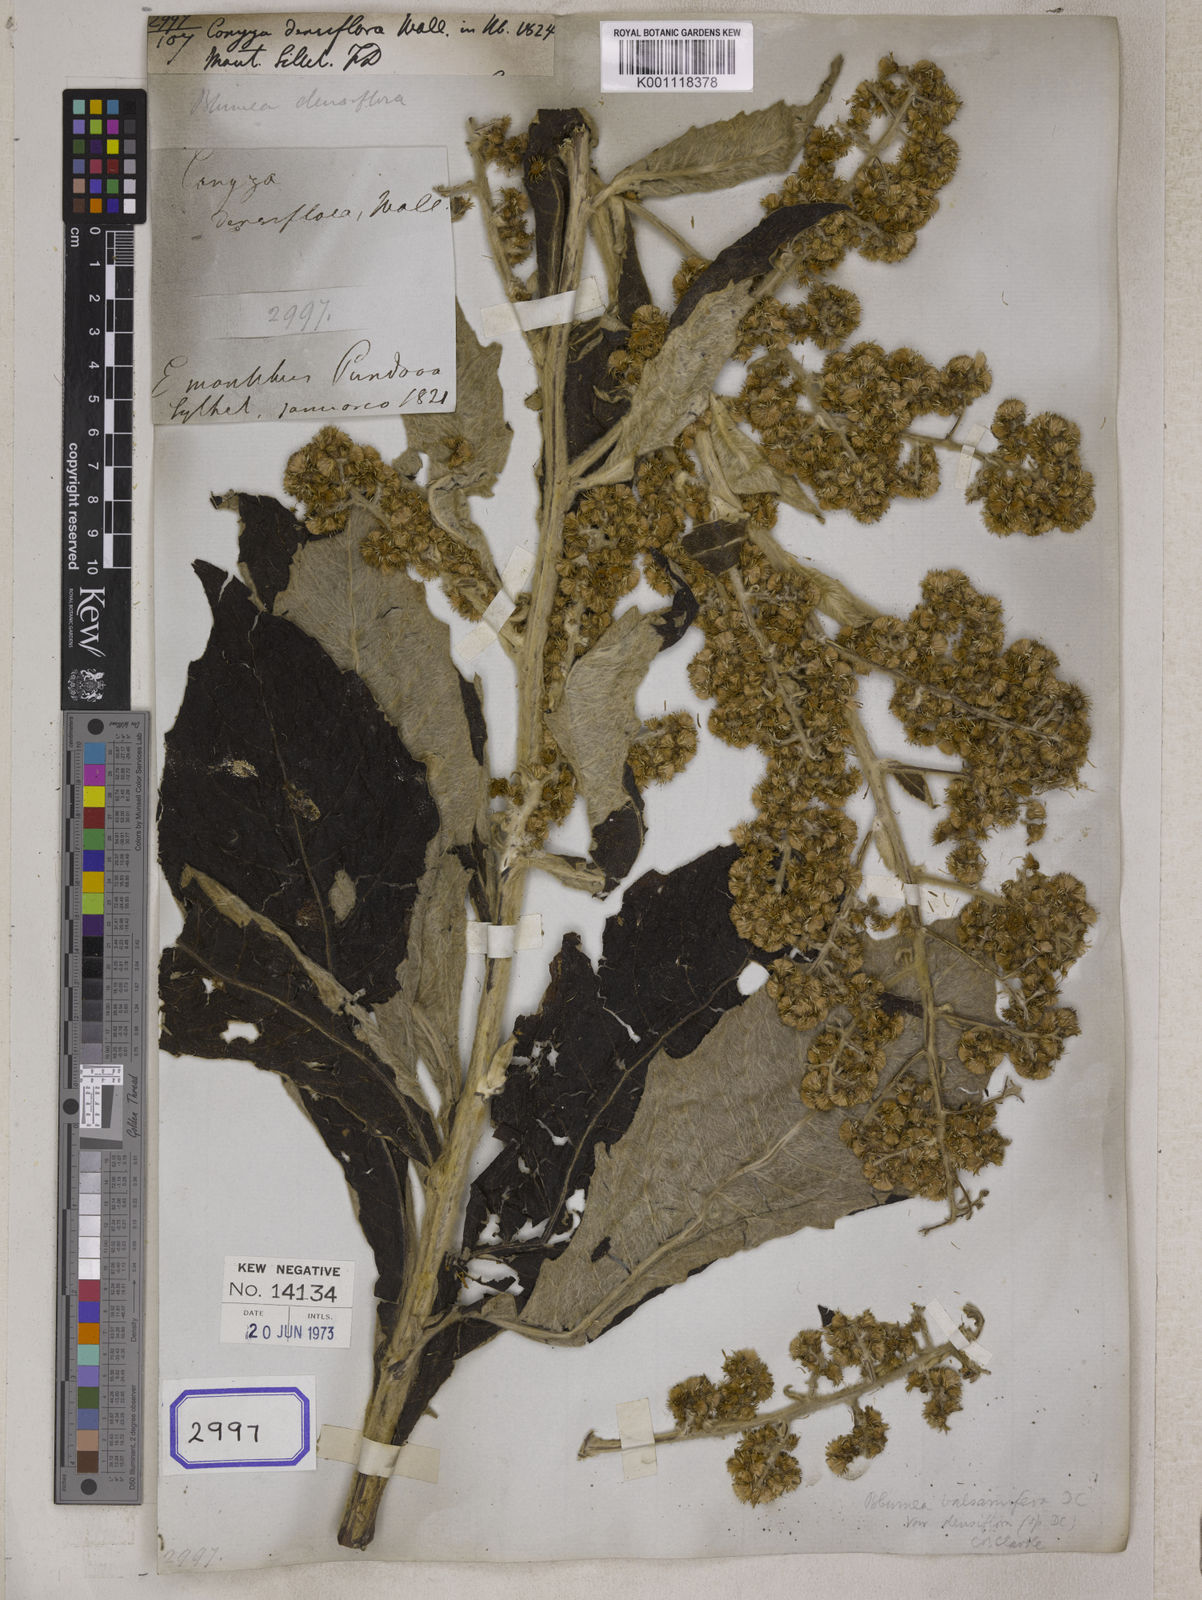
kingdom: Plantae
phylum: Tracheophyta
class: Magnoliopsida
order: Asterales
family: Asteraceae
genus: Blumea
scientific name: Blumea densiflora
